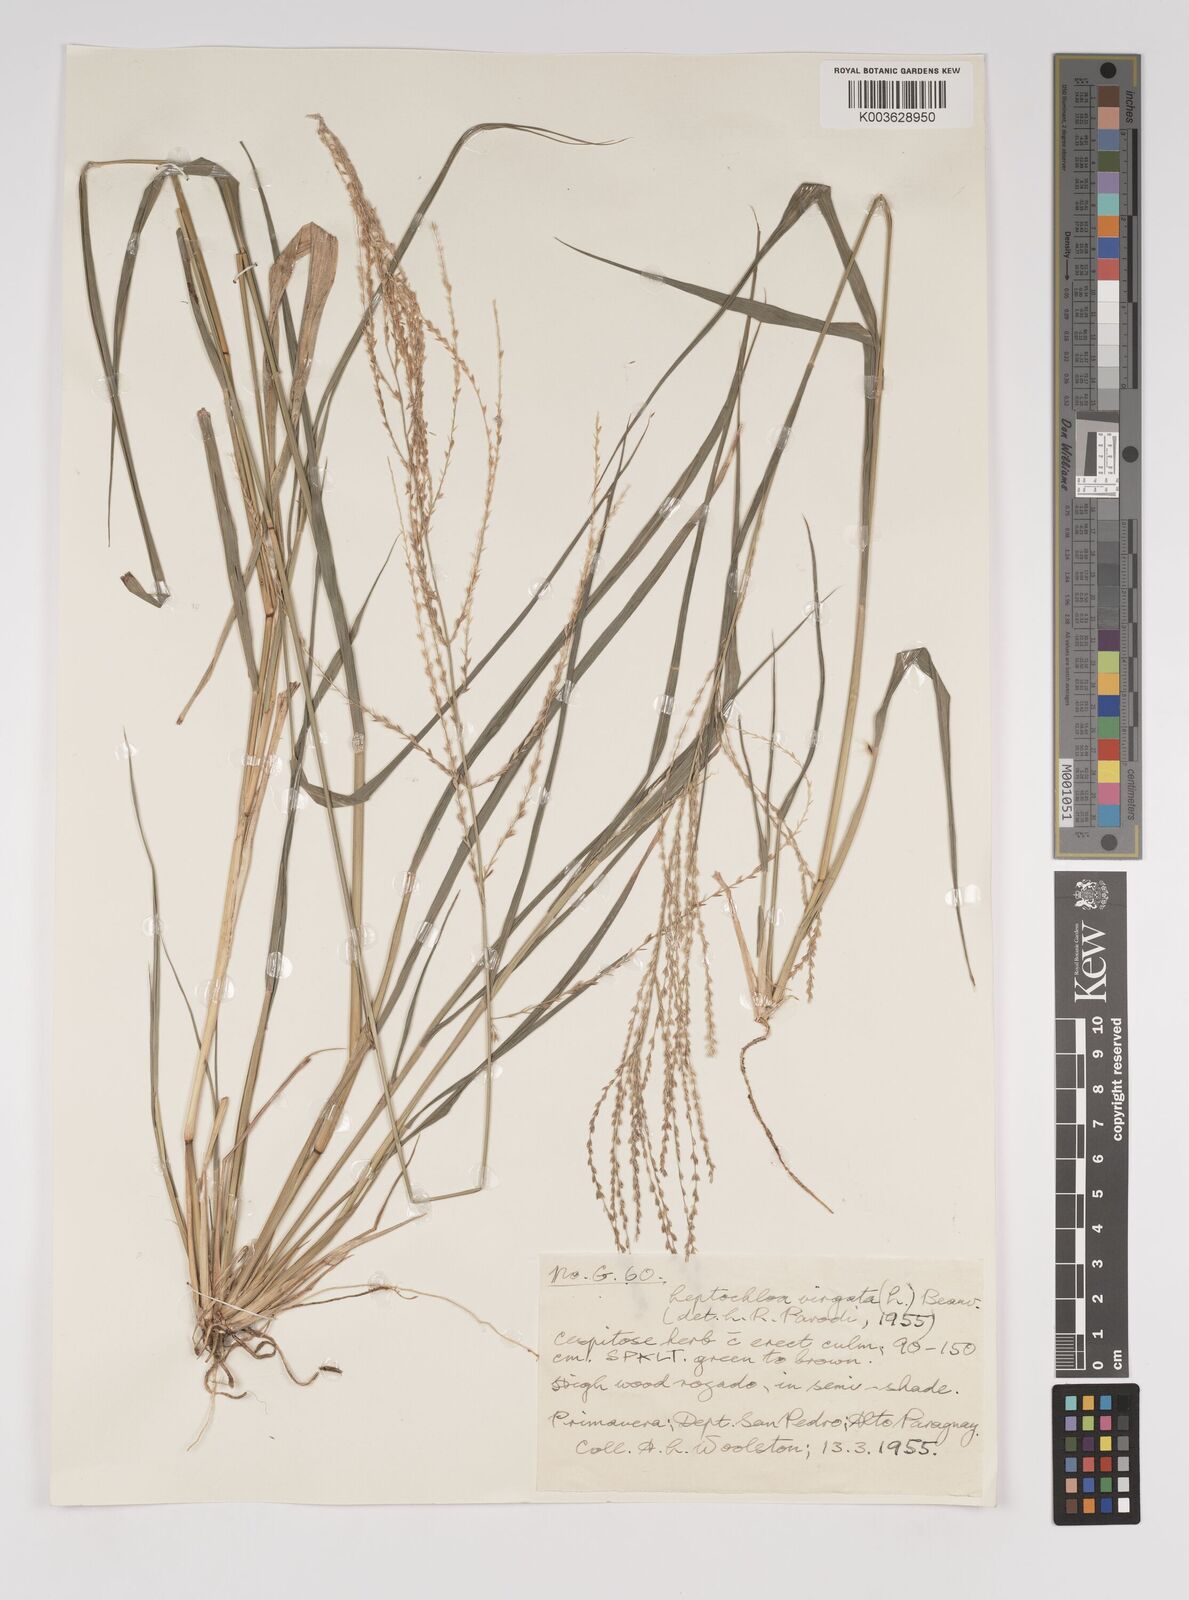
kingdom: Plantae
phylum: Tracheophyta
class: Liliopsida
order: Poales
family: Poaceae
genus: Leptochloa
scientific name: Leptochloa virgata
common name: Tropical sprangletop
